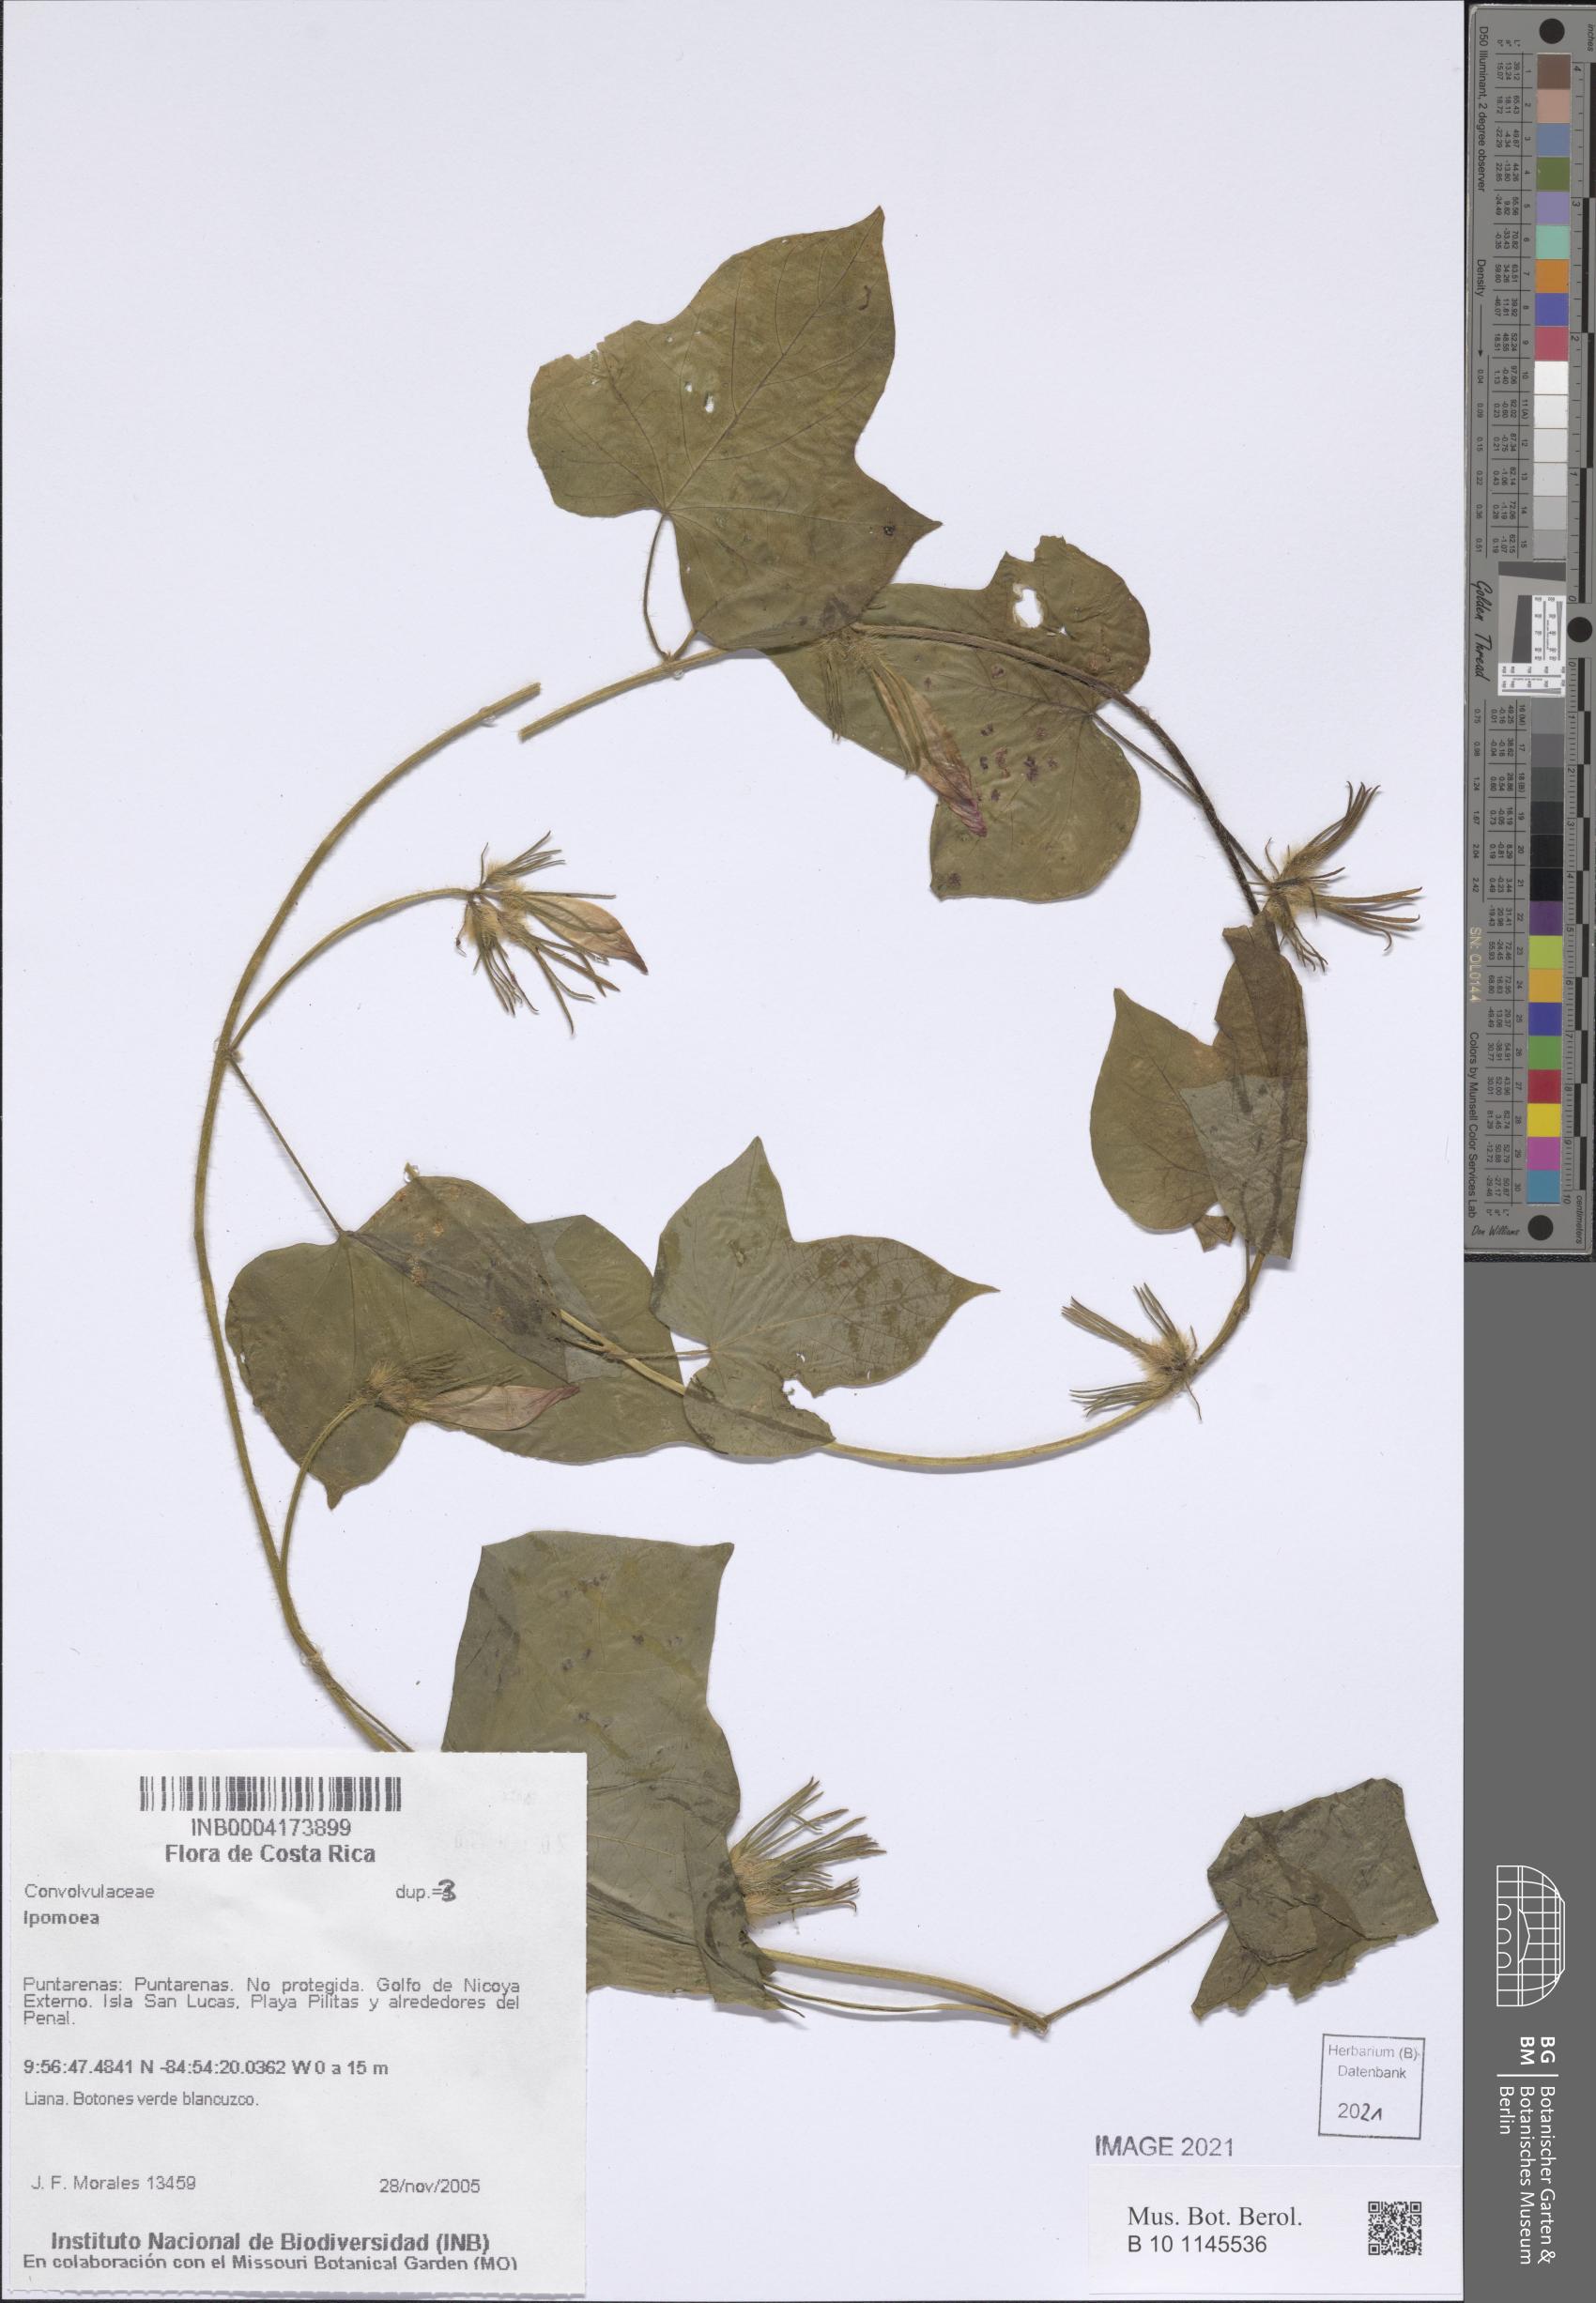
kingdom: Plantae
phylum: Tracheophyta
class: Magnoliopsida
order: Solanales
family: Convolvulaceae
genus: Ipomoea
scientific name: Ipomoea
